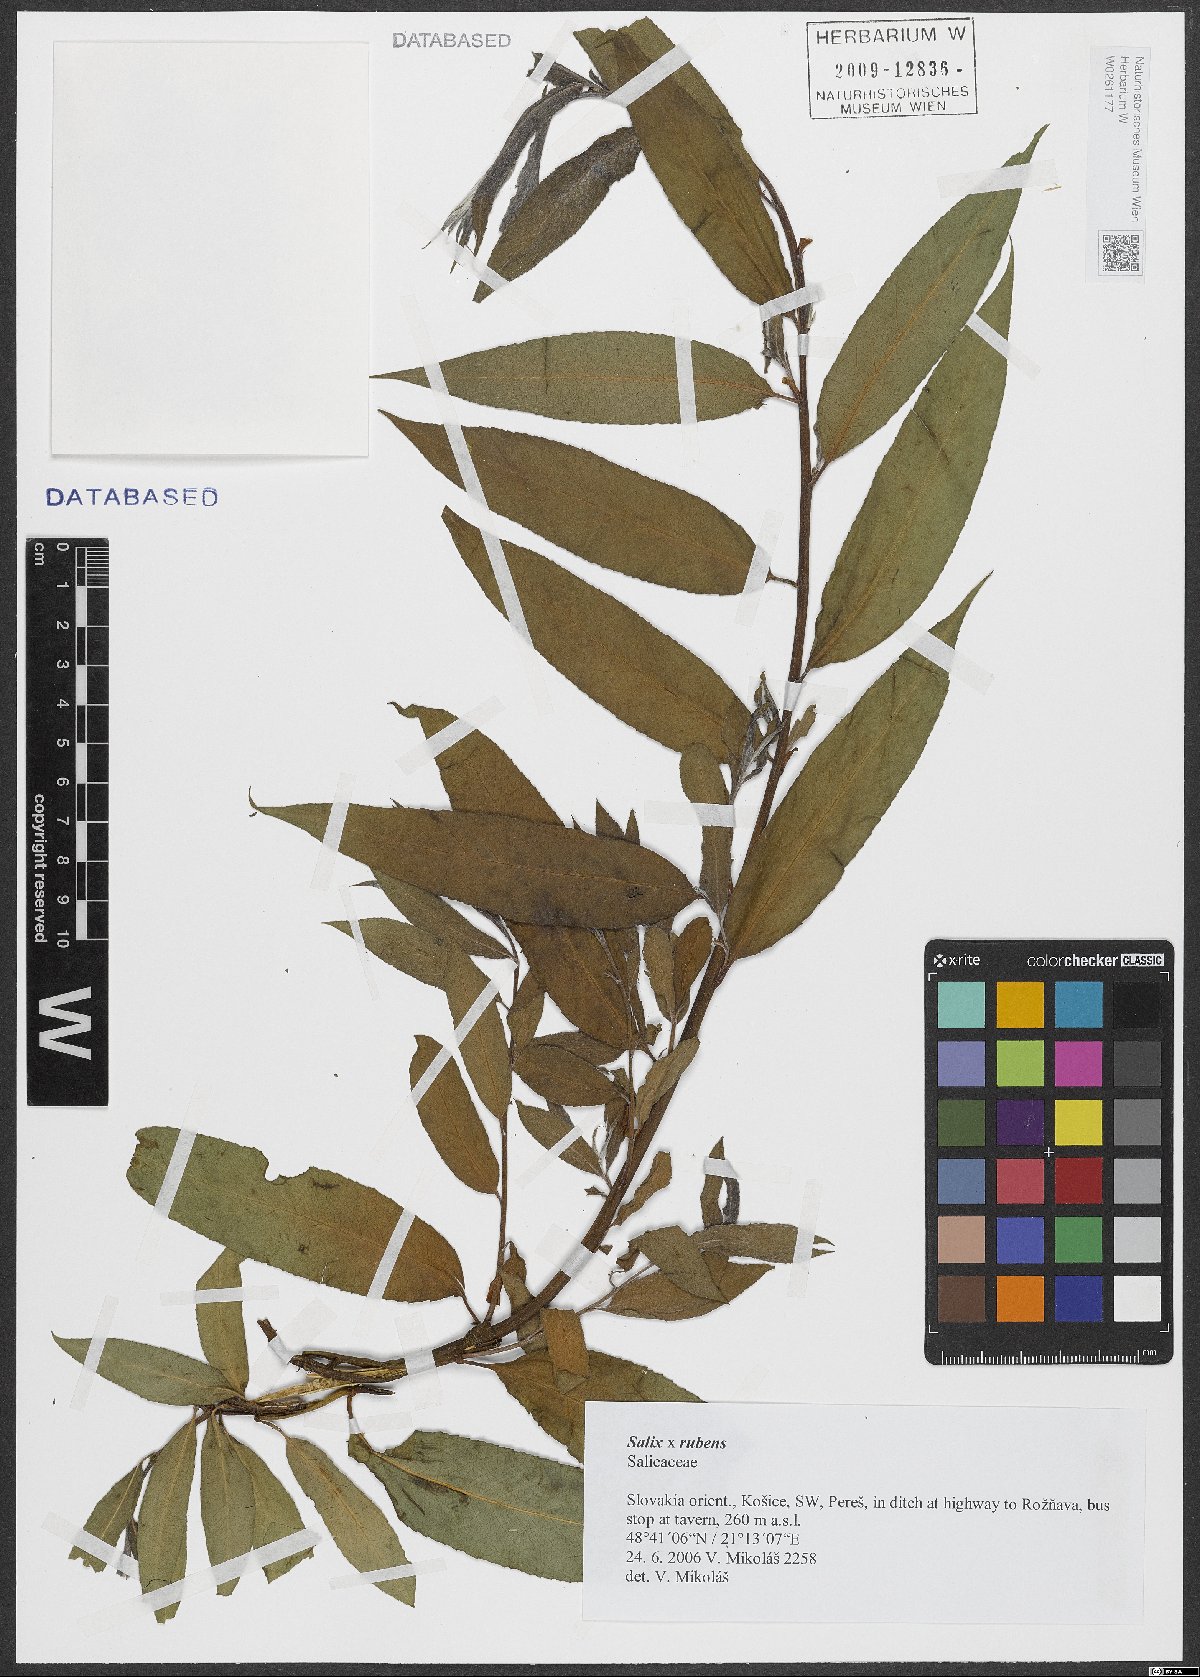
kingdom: Plantae
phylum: Tracheophyta
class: Magnoliopsida
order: Malpighiales
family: Salicaceae
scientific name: Salicaceae
